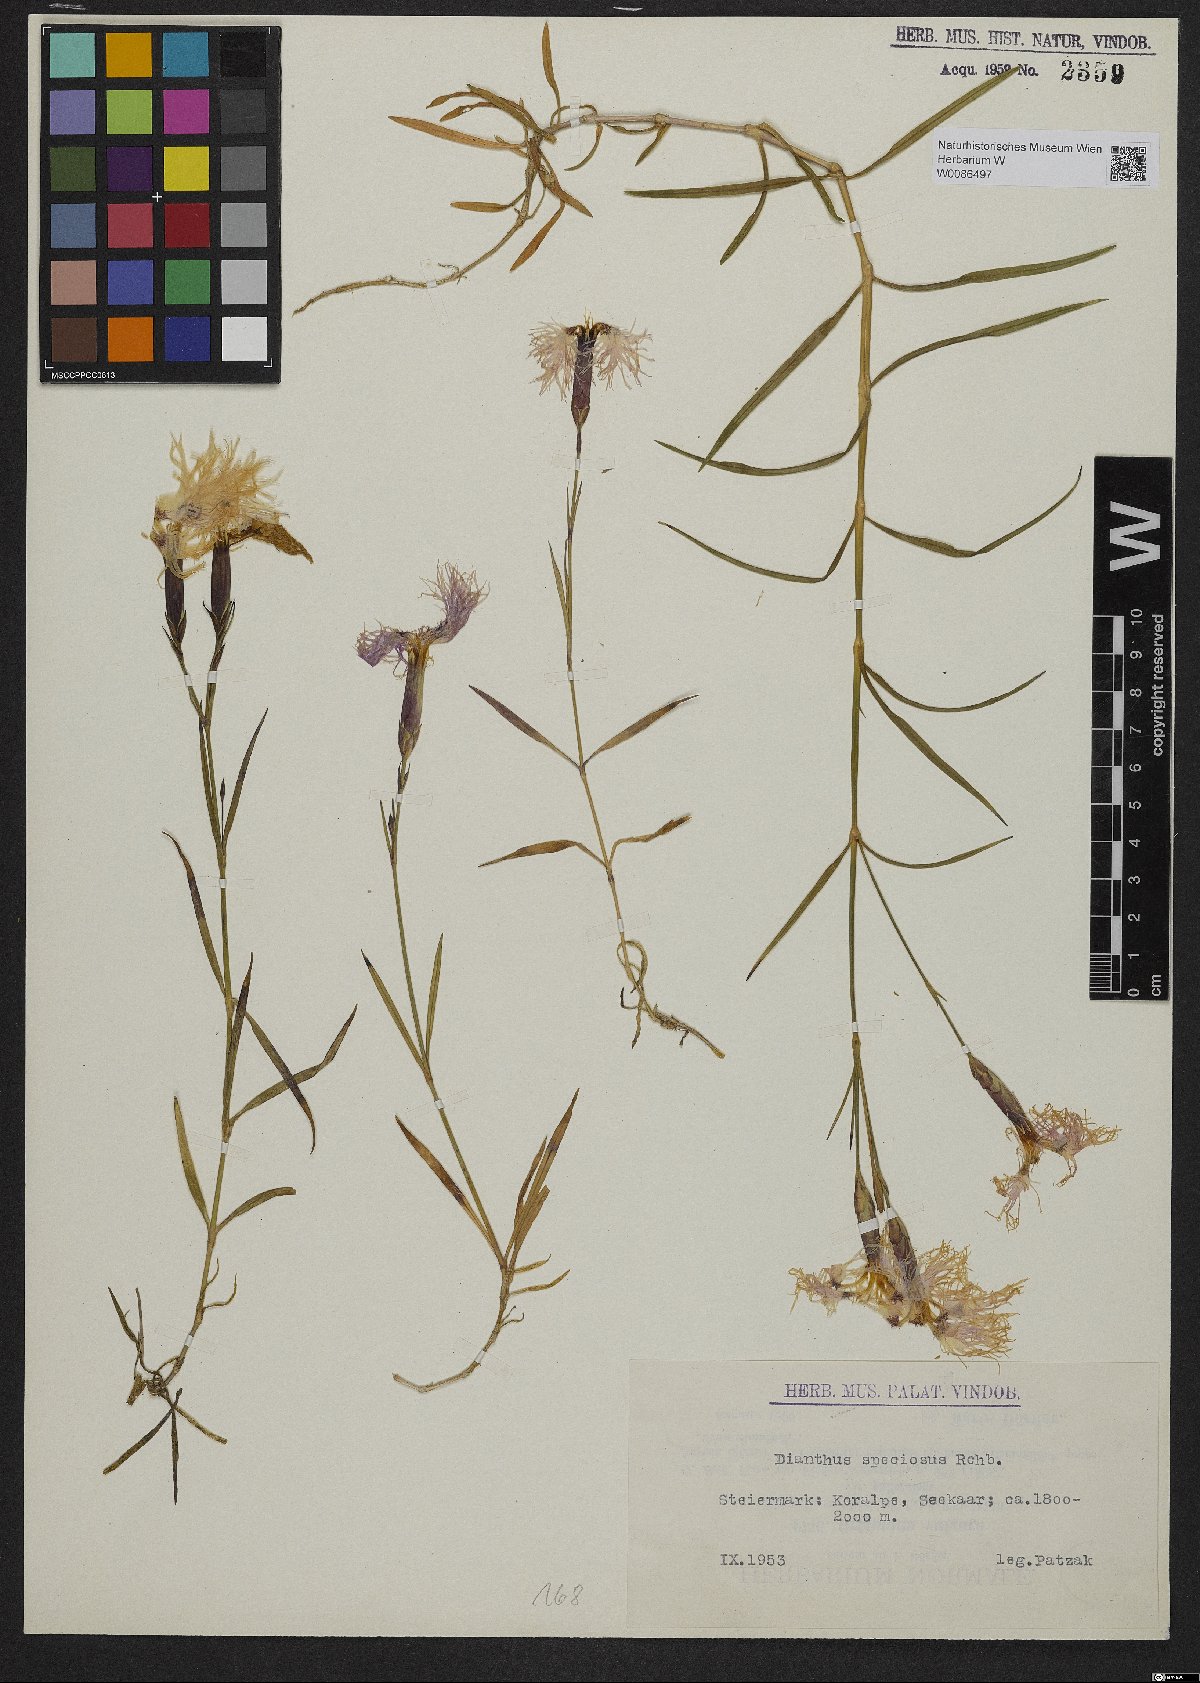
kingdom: Plantae
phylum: Tracheophyta
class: Magnoliopsida
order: Caryophyllales
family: Caryophyllaceae
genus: Dianthus
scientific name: Dianthus superbus
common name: Fringed pink
